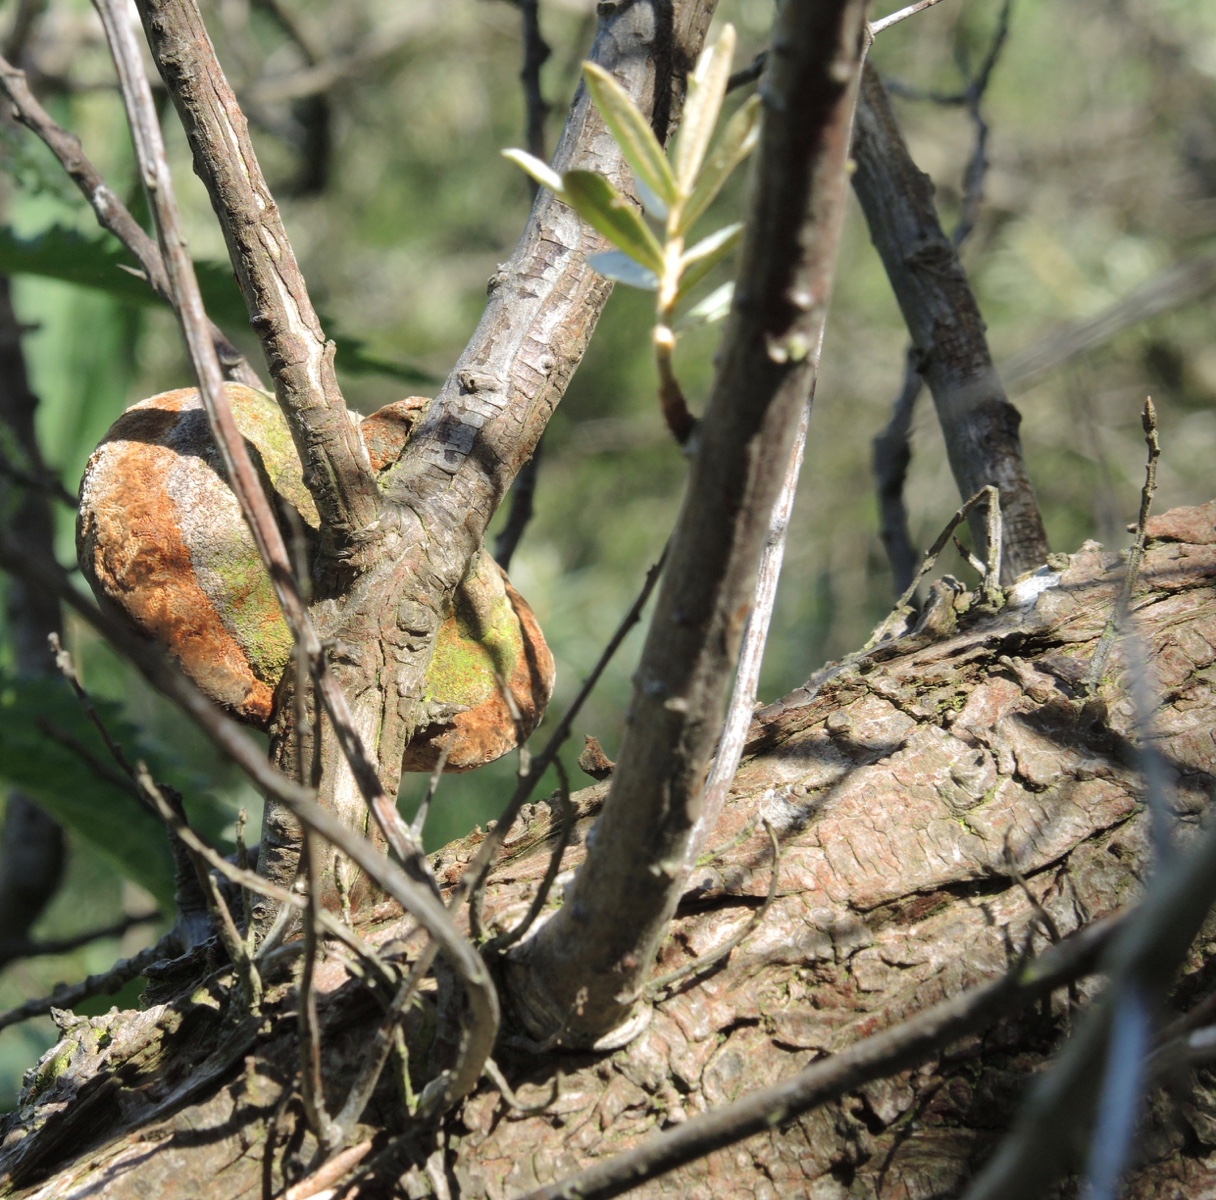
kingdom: Fungi
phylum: Basidiomycota
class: Agaricomycetes
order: Hymenochaetales
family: Hymenochaetaceae
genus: Fomitiporia
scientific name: Fomitiporia hippophaeicola
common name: havtorn-ildporesvamp
